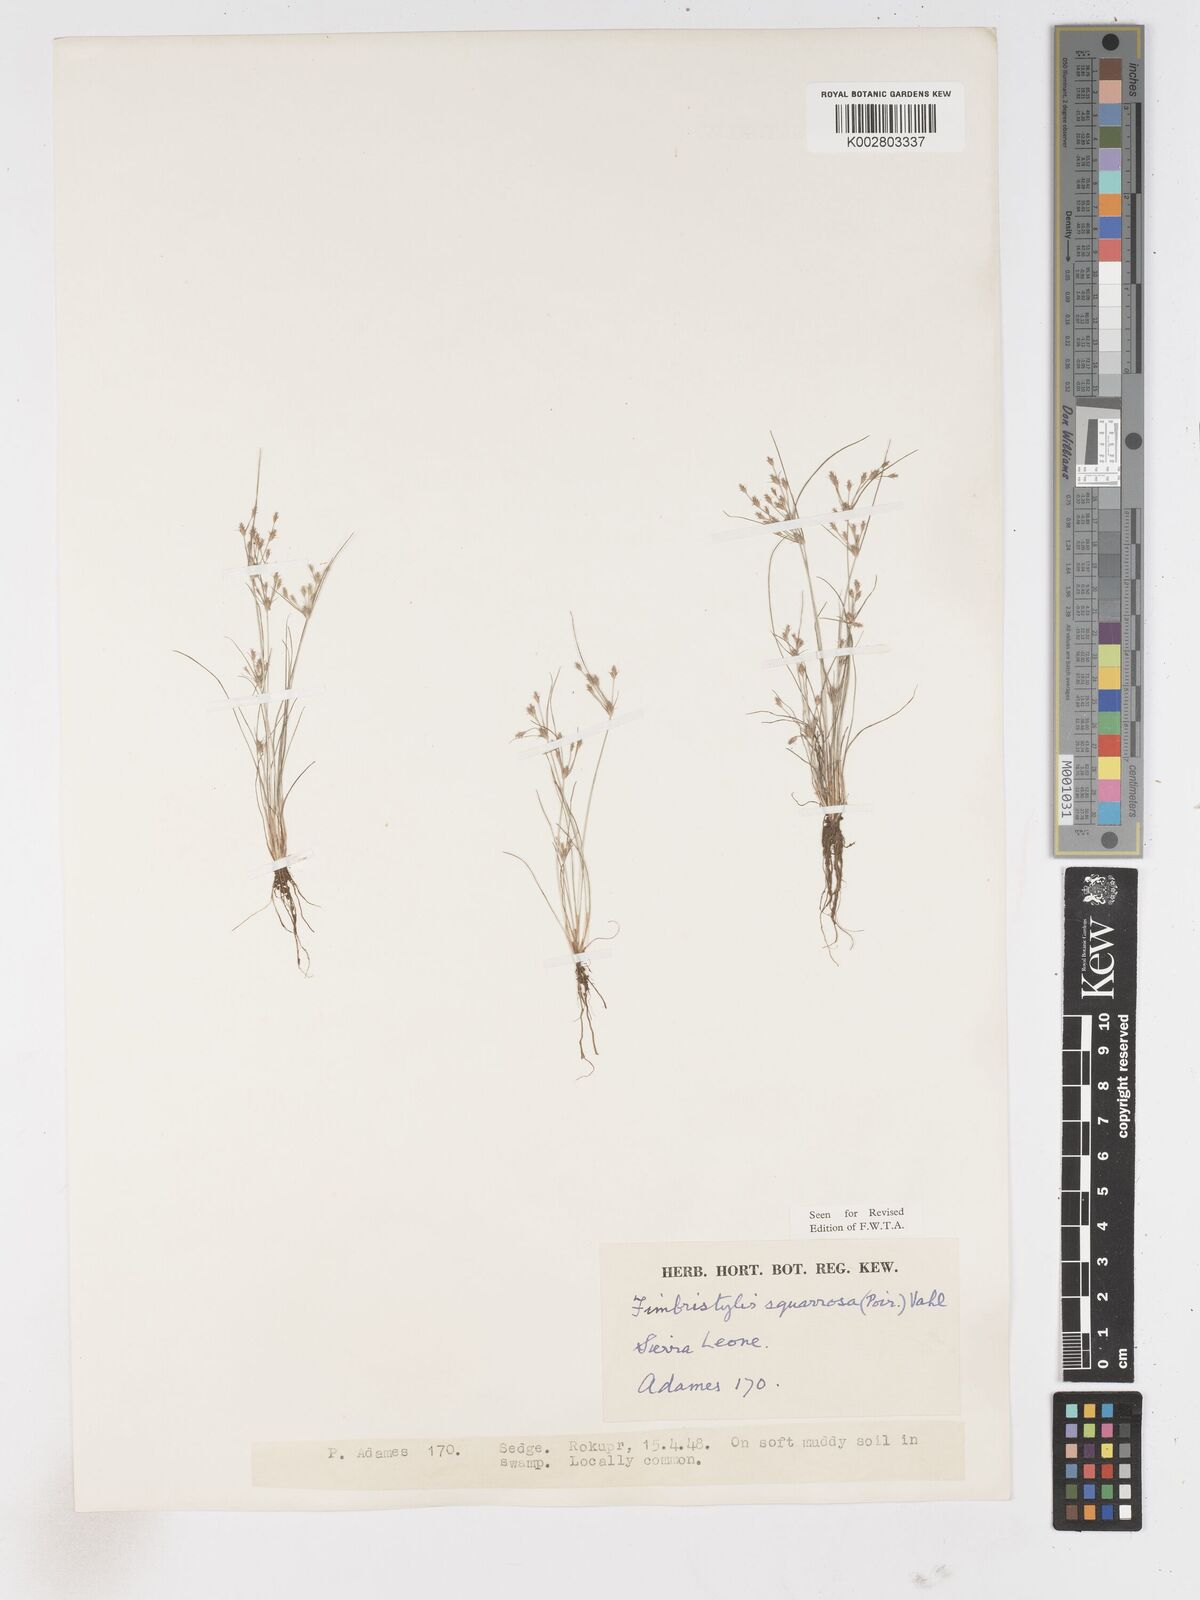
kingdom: Plantae
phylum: Tracheophyta
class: Liliopsida
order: Poales
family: Cyperaceae
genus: Fimbristylis
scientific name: Fimbristylis squarrosa
